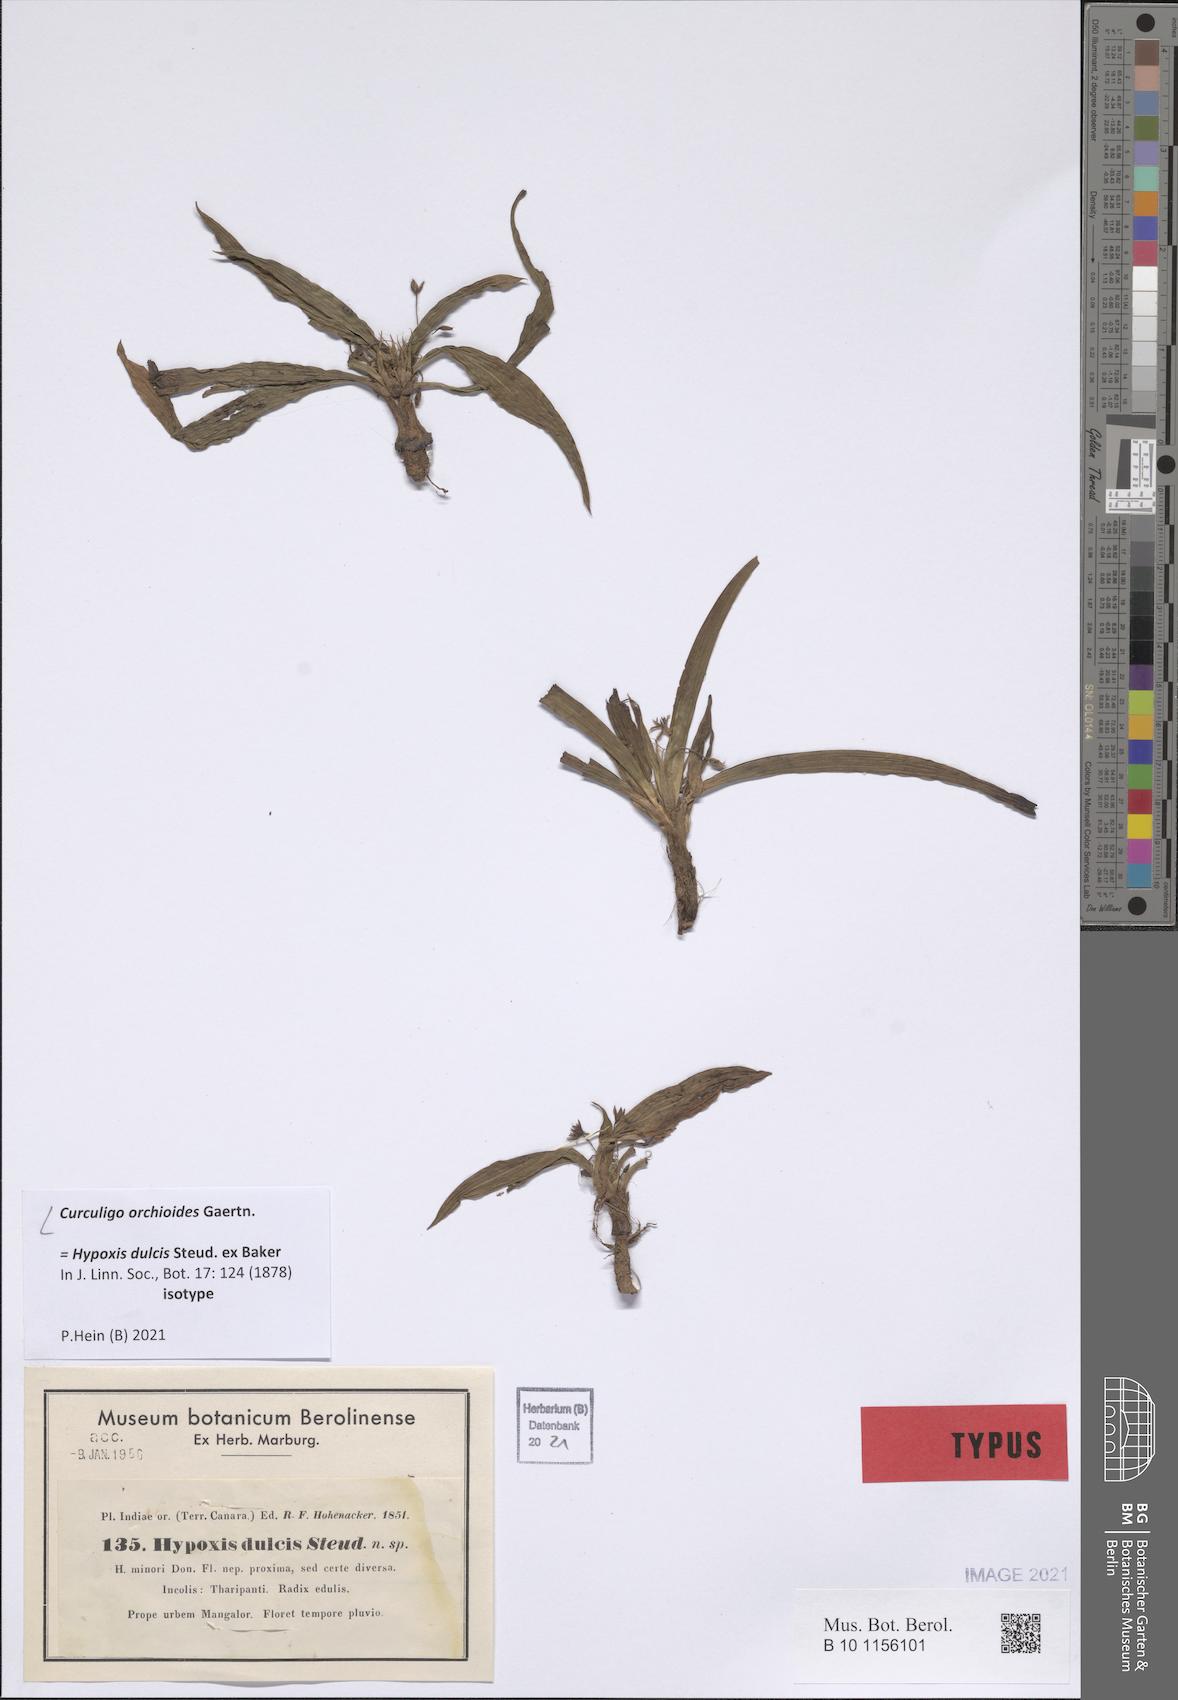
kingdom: Plantae
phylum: Tracheophyta
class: Liliopsida
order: Asparagales
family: Hypoxidaceae
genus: Curculigo
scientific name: Curculigo orchioides
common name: Golden eye-grass
